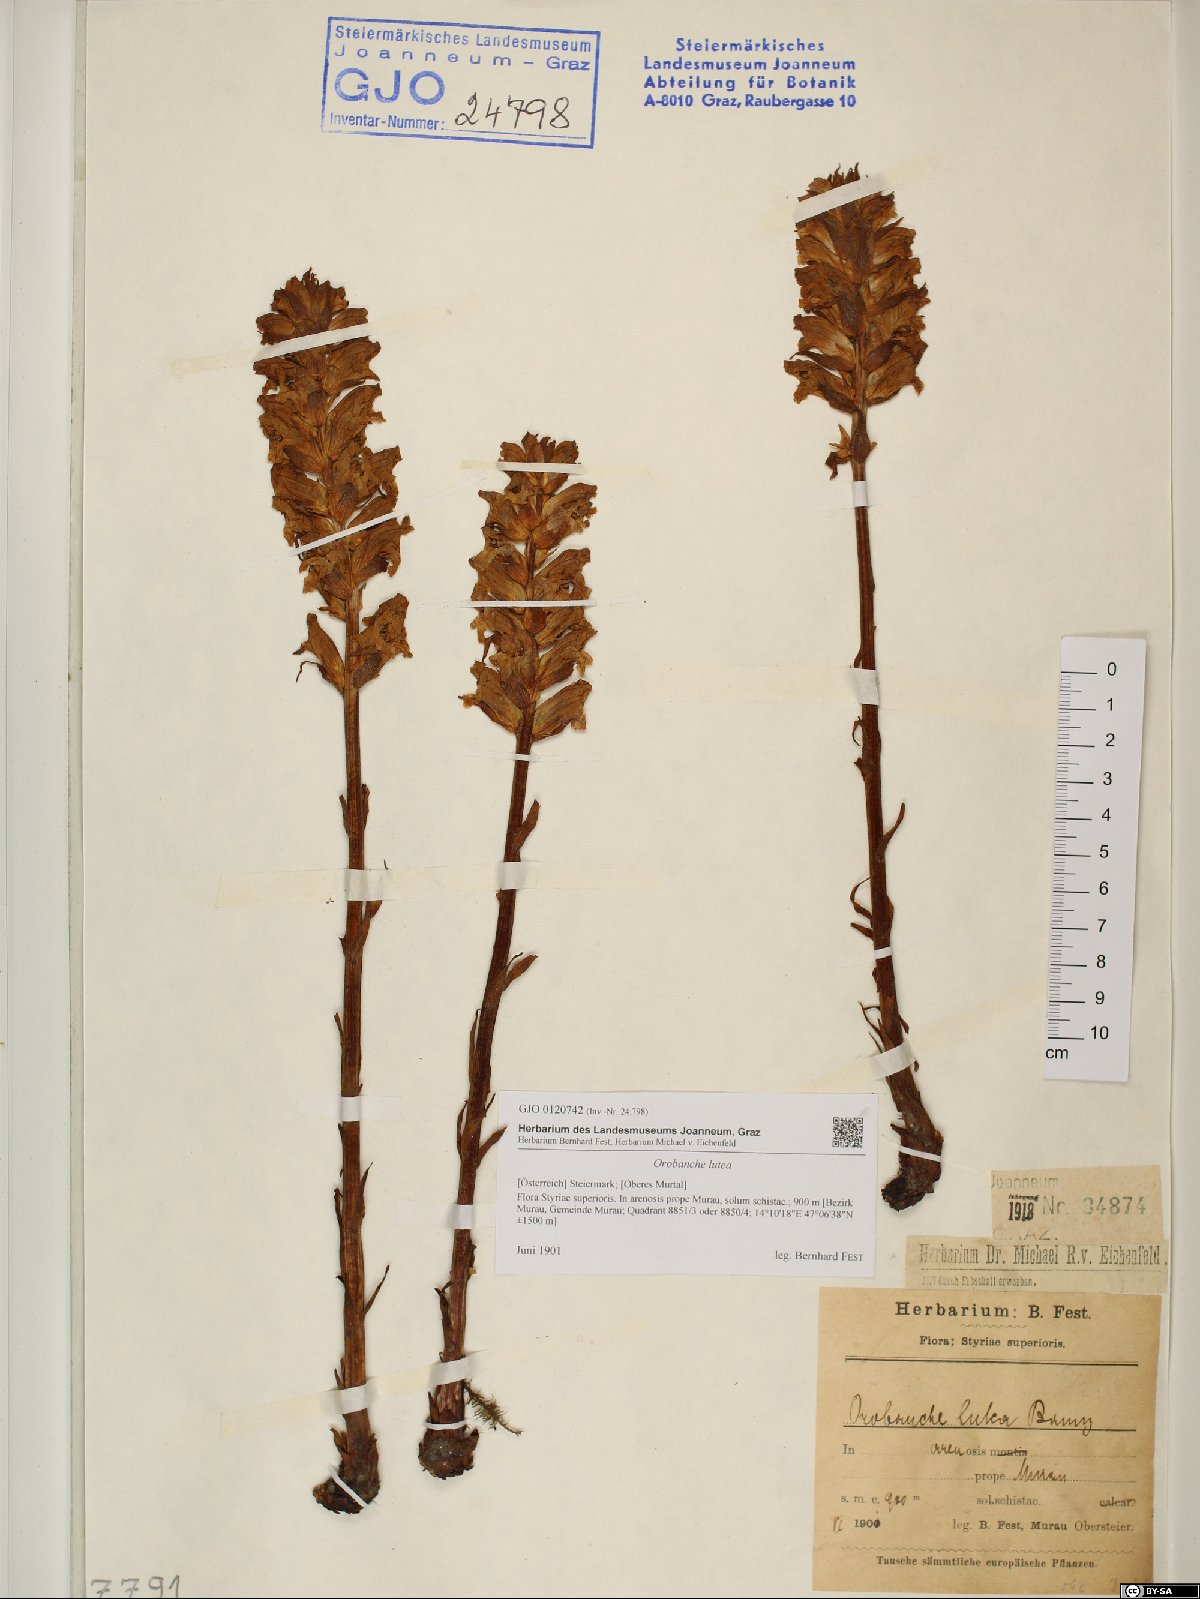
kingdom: Plantae
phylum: Tracheophyta
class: Magnoliopsida
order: Lamiales
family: Orobanchaceae
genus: Orobanche
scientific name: Orobanche lutea
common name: Yellow broomrape
